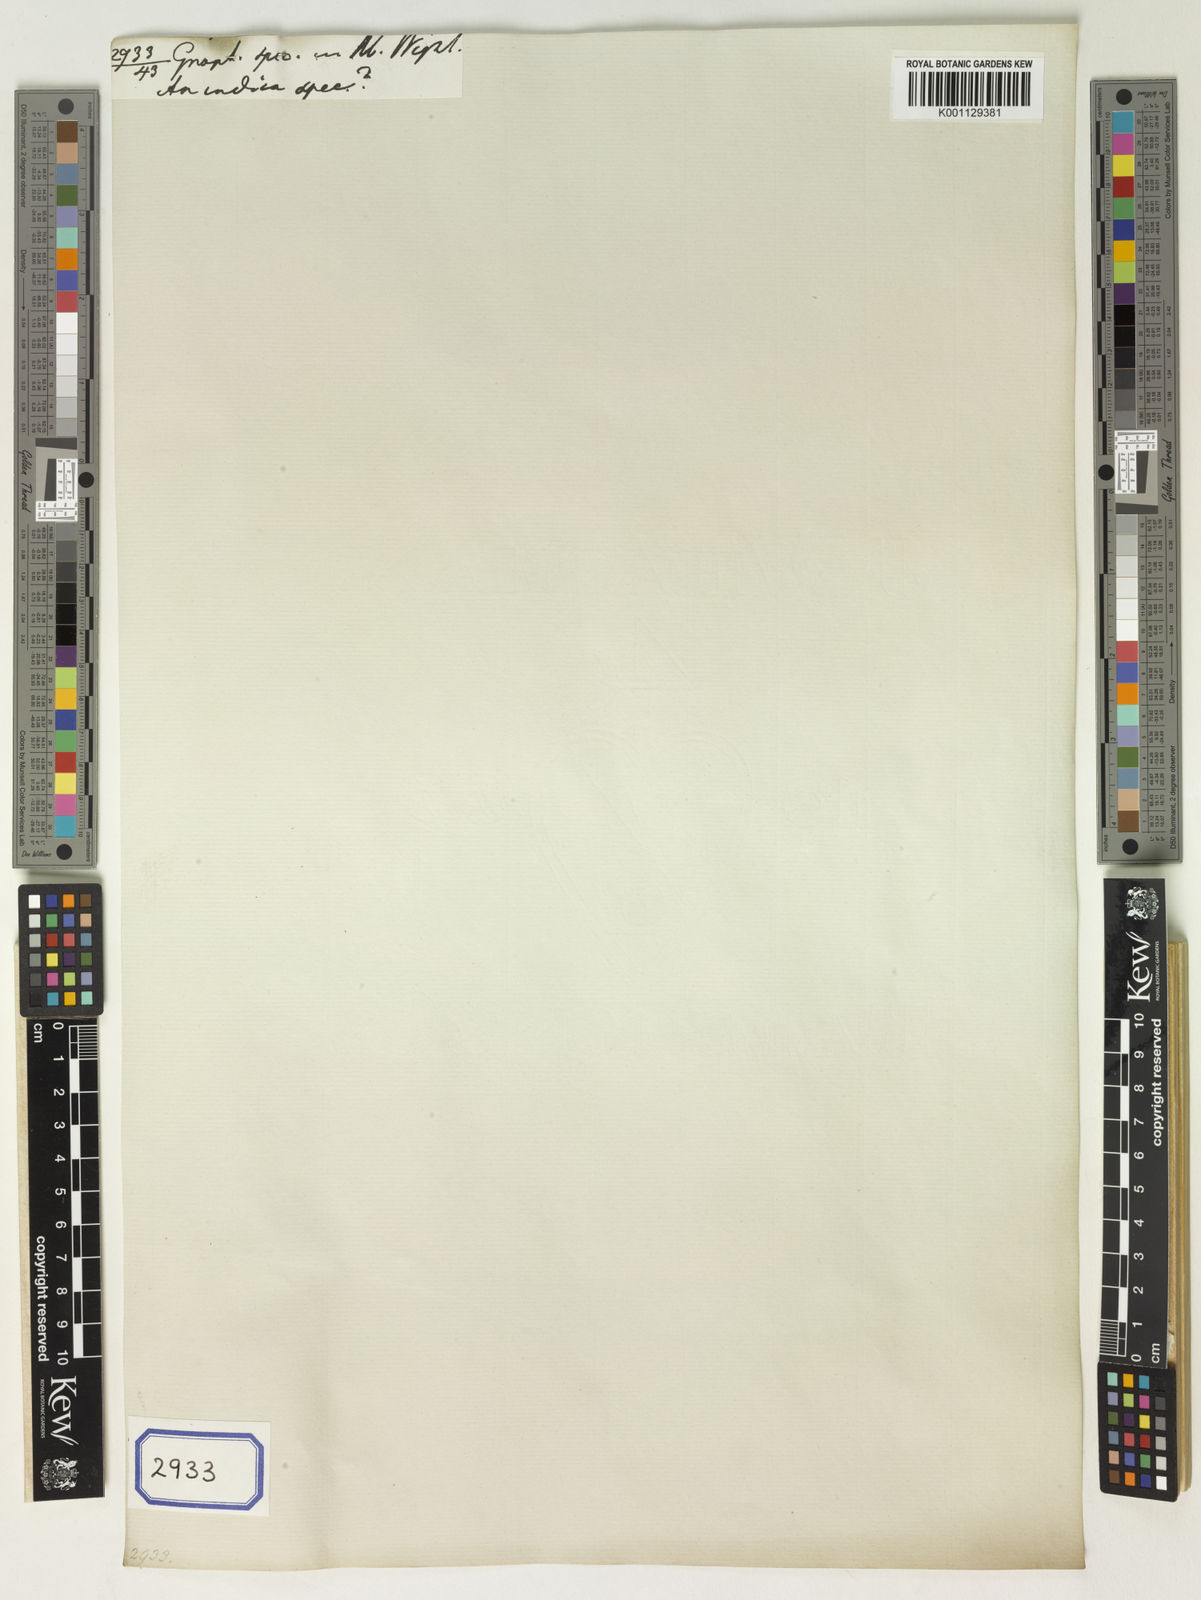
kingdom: Plantae
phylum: Tracheophyta
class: Magnoliopsida
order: Asterales
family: Asteraceae
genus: Gnaphalium
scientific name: Gnaphalium
